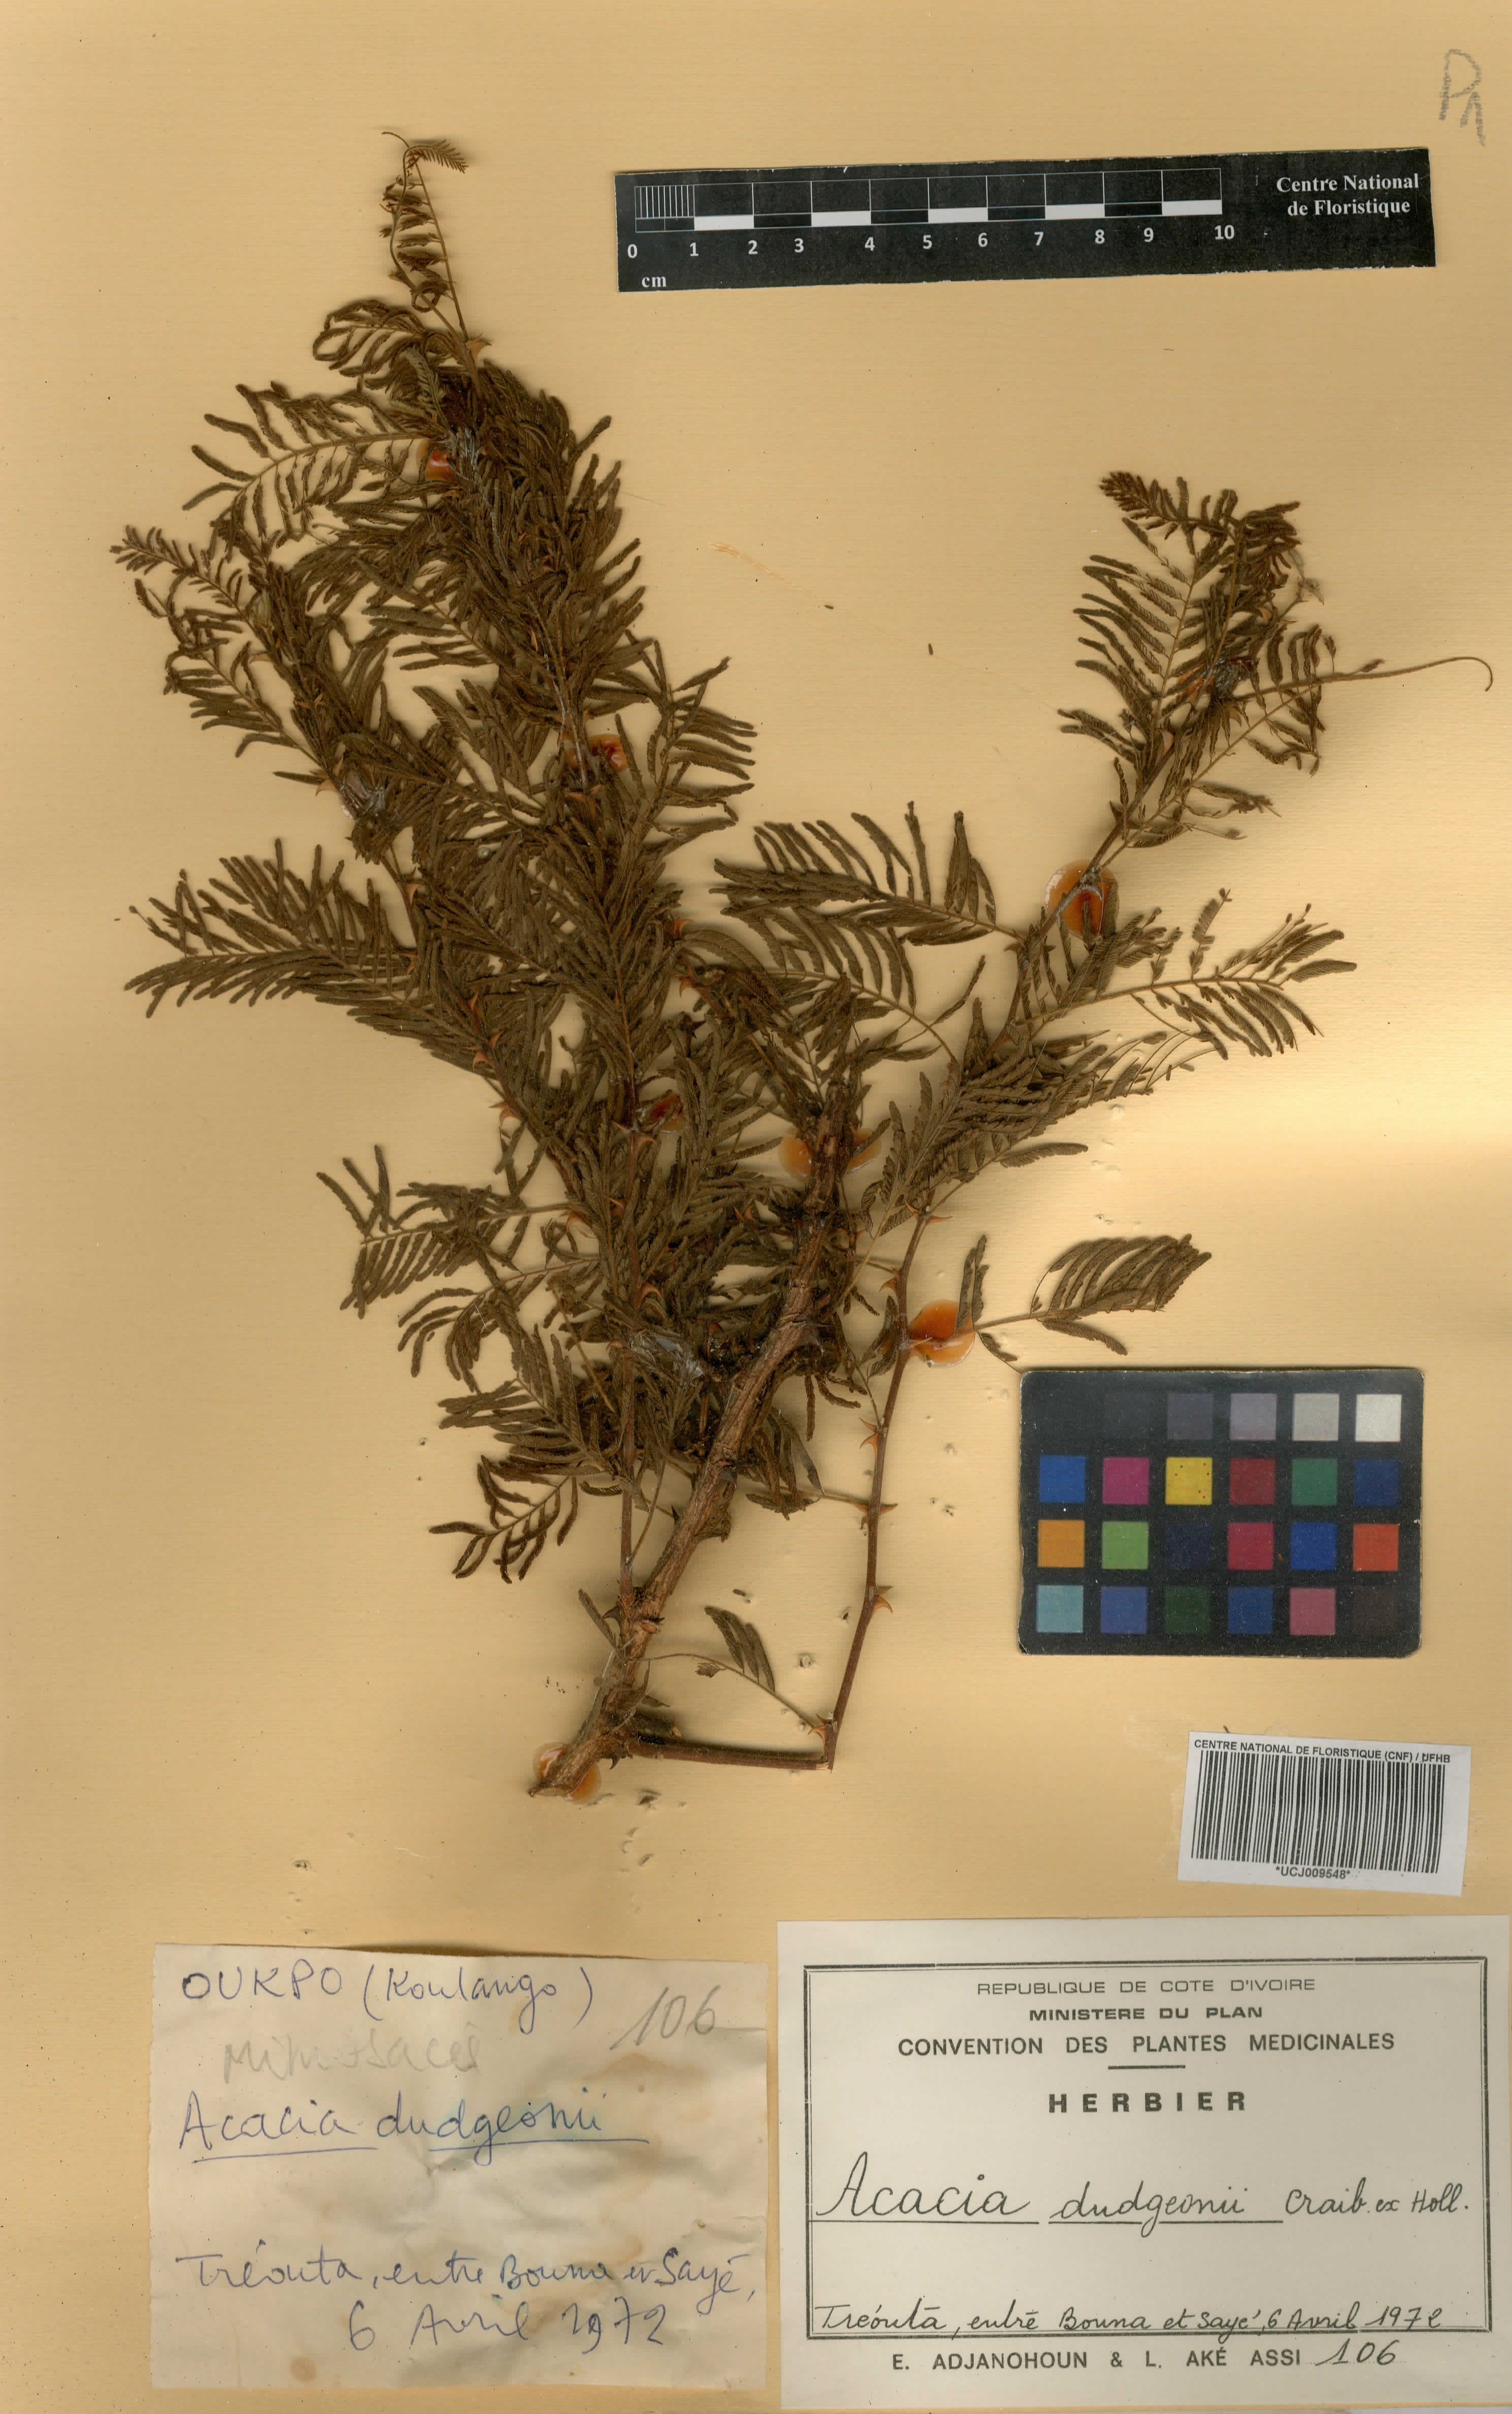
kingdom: Plantae
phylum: Tracheophyta
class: Magnoliopsida
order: Fabales
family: Fabaceae
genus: Senegalia
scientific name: Senegalia dudgeonii
